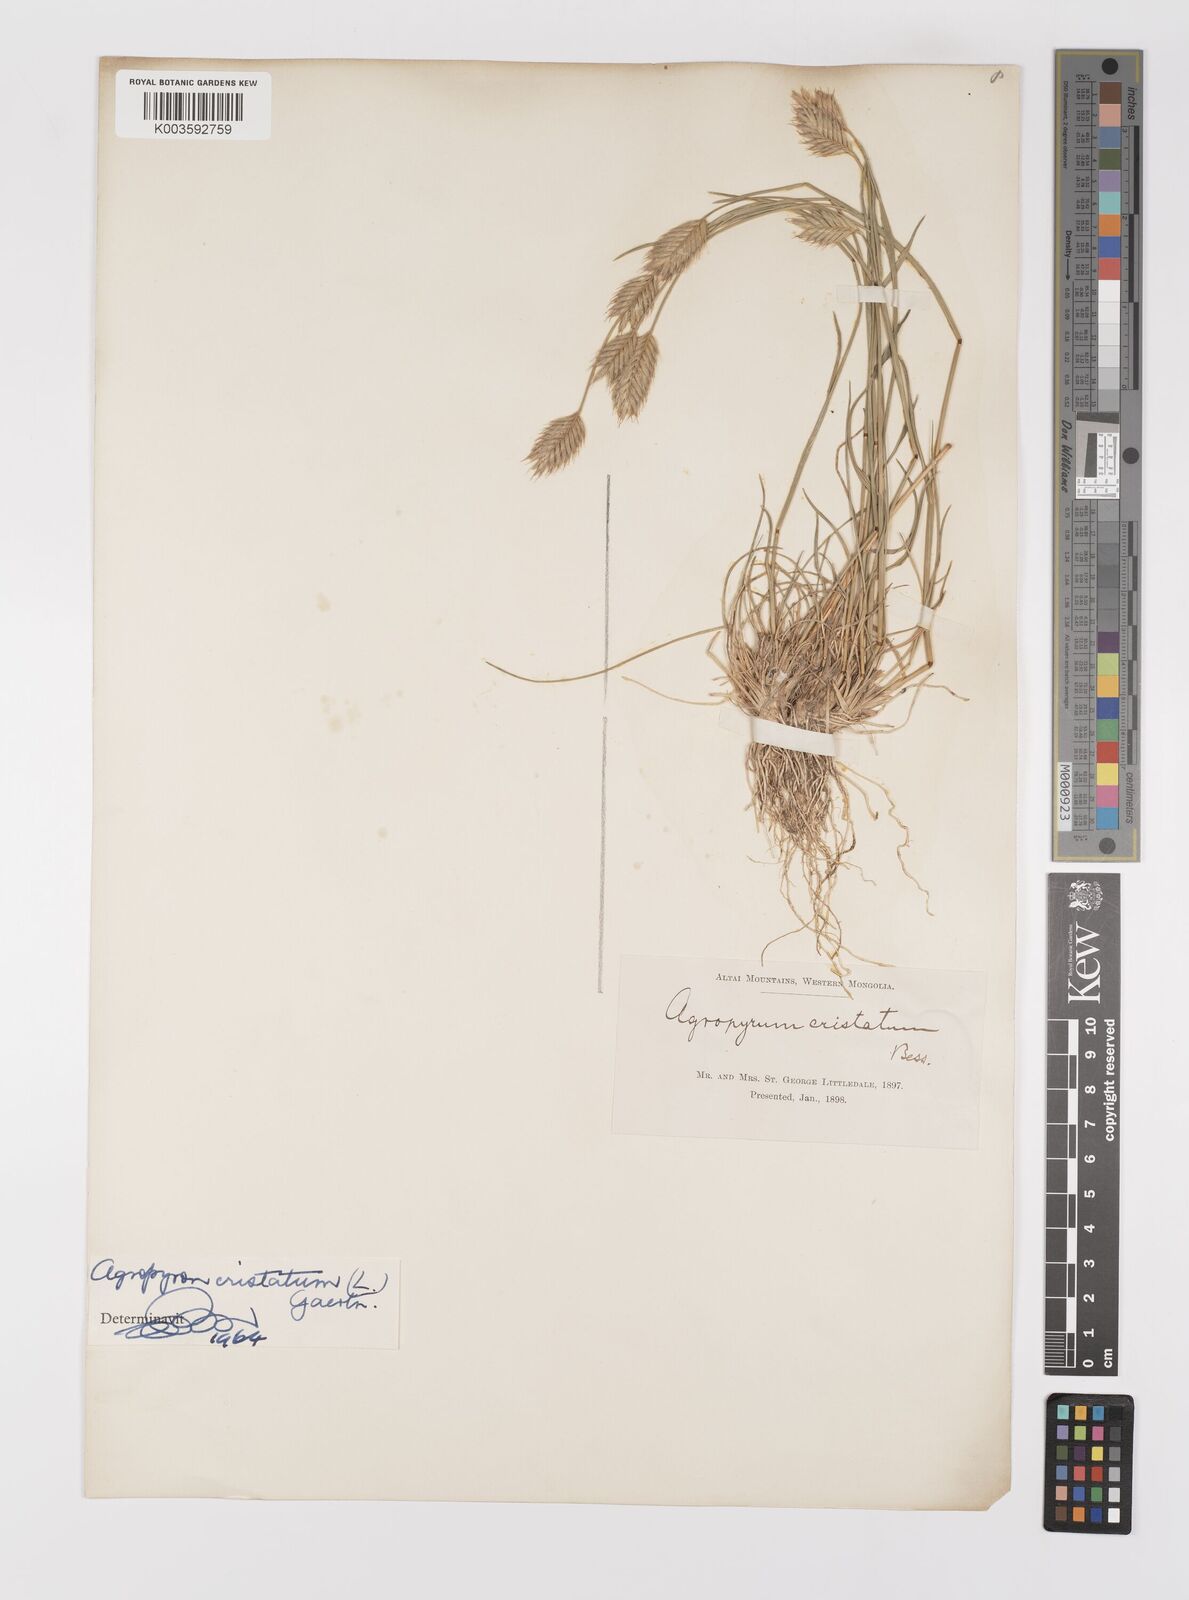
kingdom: Plantae
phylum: Tracheophyta
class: Liliopsida
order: Poales
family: Poaceae
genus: Agropyron
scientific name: Agropyron cristatum
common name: Crested wheatgrass
